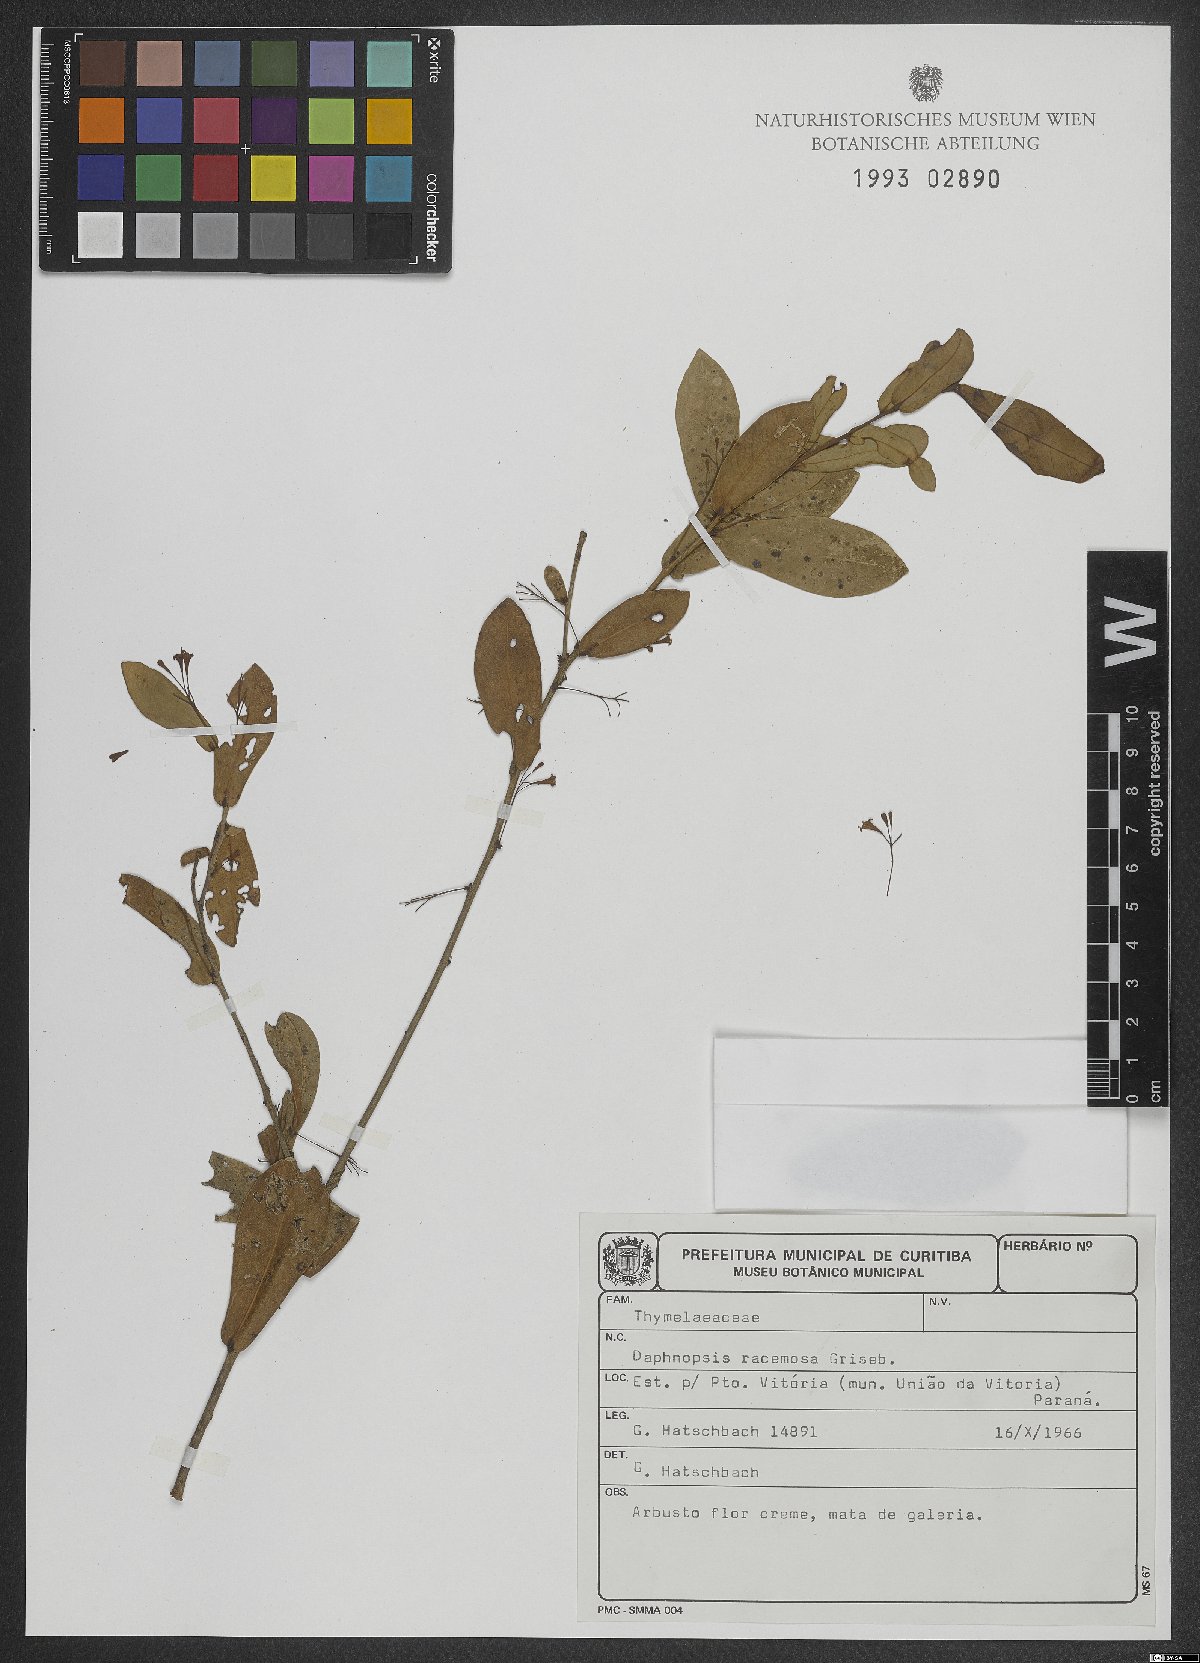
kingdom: Plantae
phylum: Tracheophyta
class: Magnoliopsida
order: Malvales
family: Thymelaeaceae
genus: Daphnopsis
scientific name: Daphnopsis racemosa
